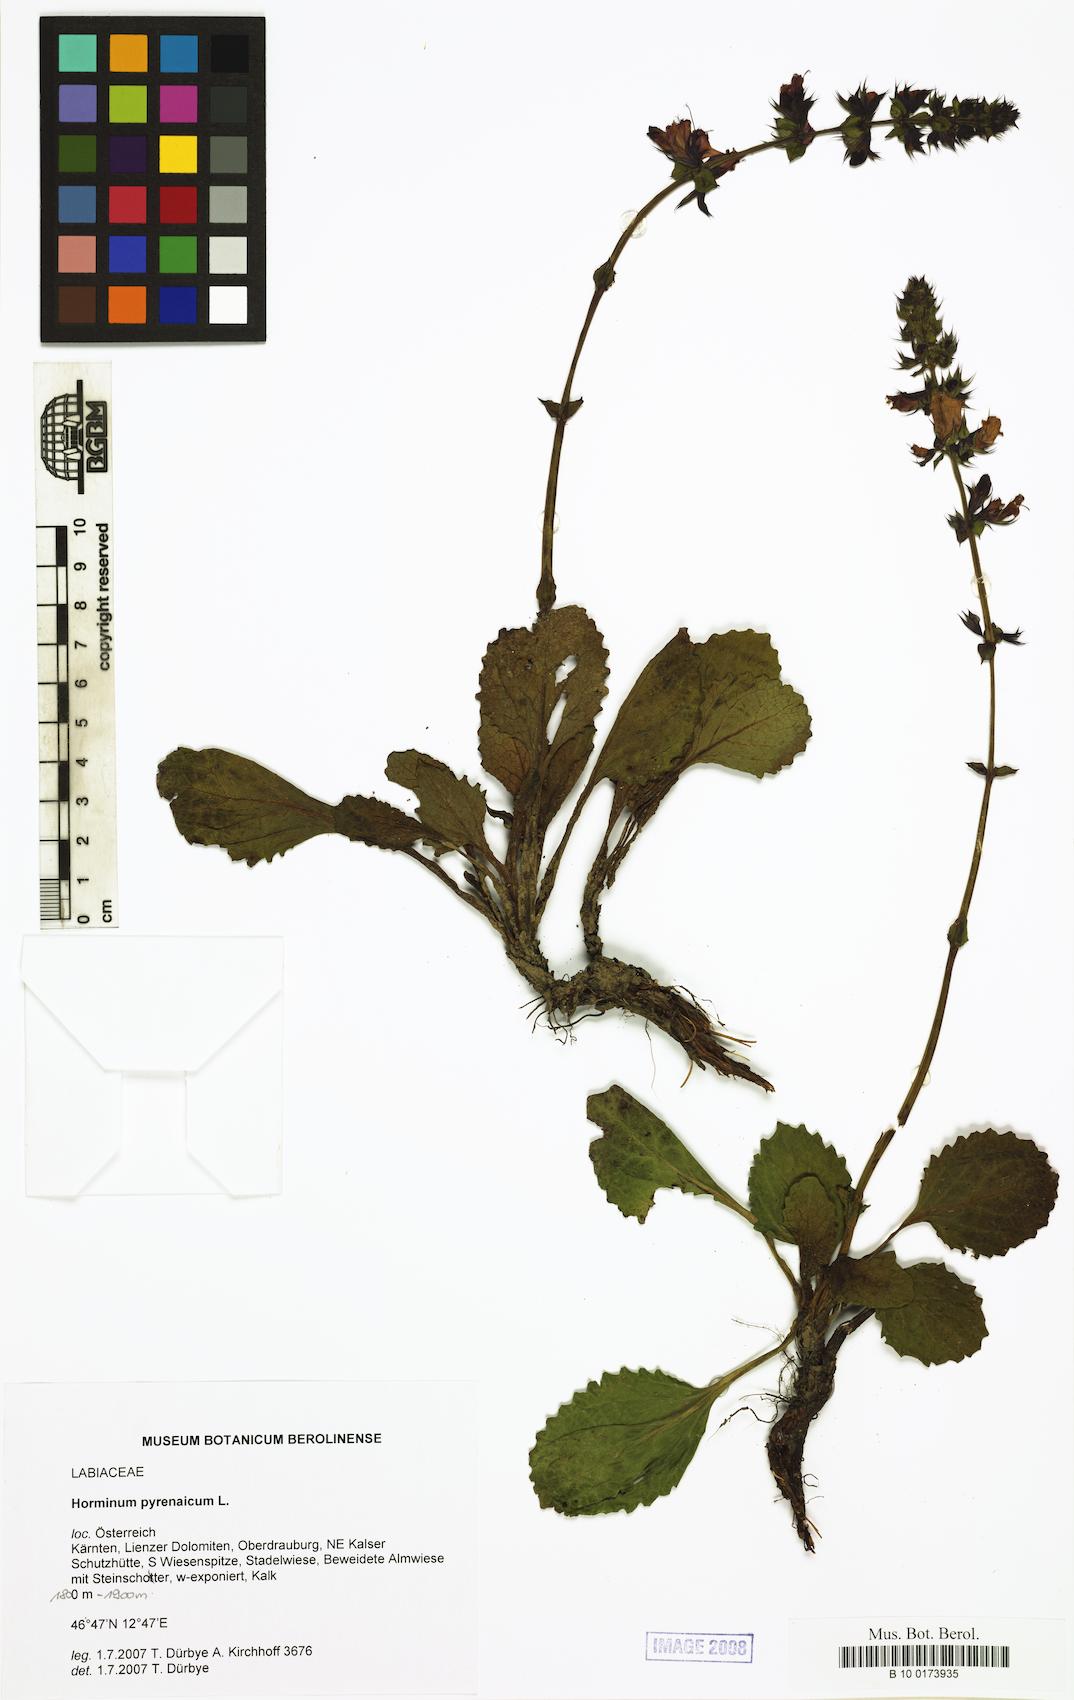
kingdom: Plantae
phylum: Tracheophyta
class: Magnoliopsida
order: Lamiales
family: Lamiaceae
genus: Horminum
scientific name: Horminum pyrenaicum
